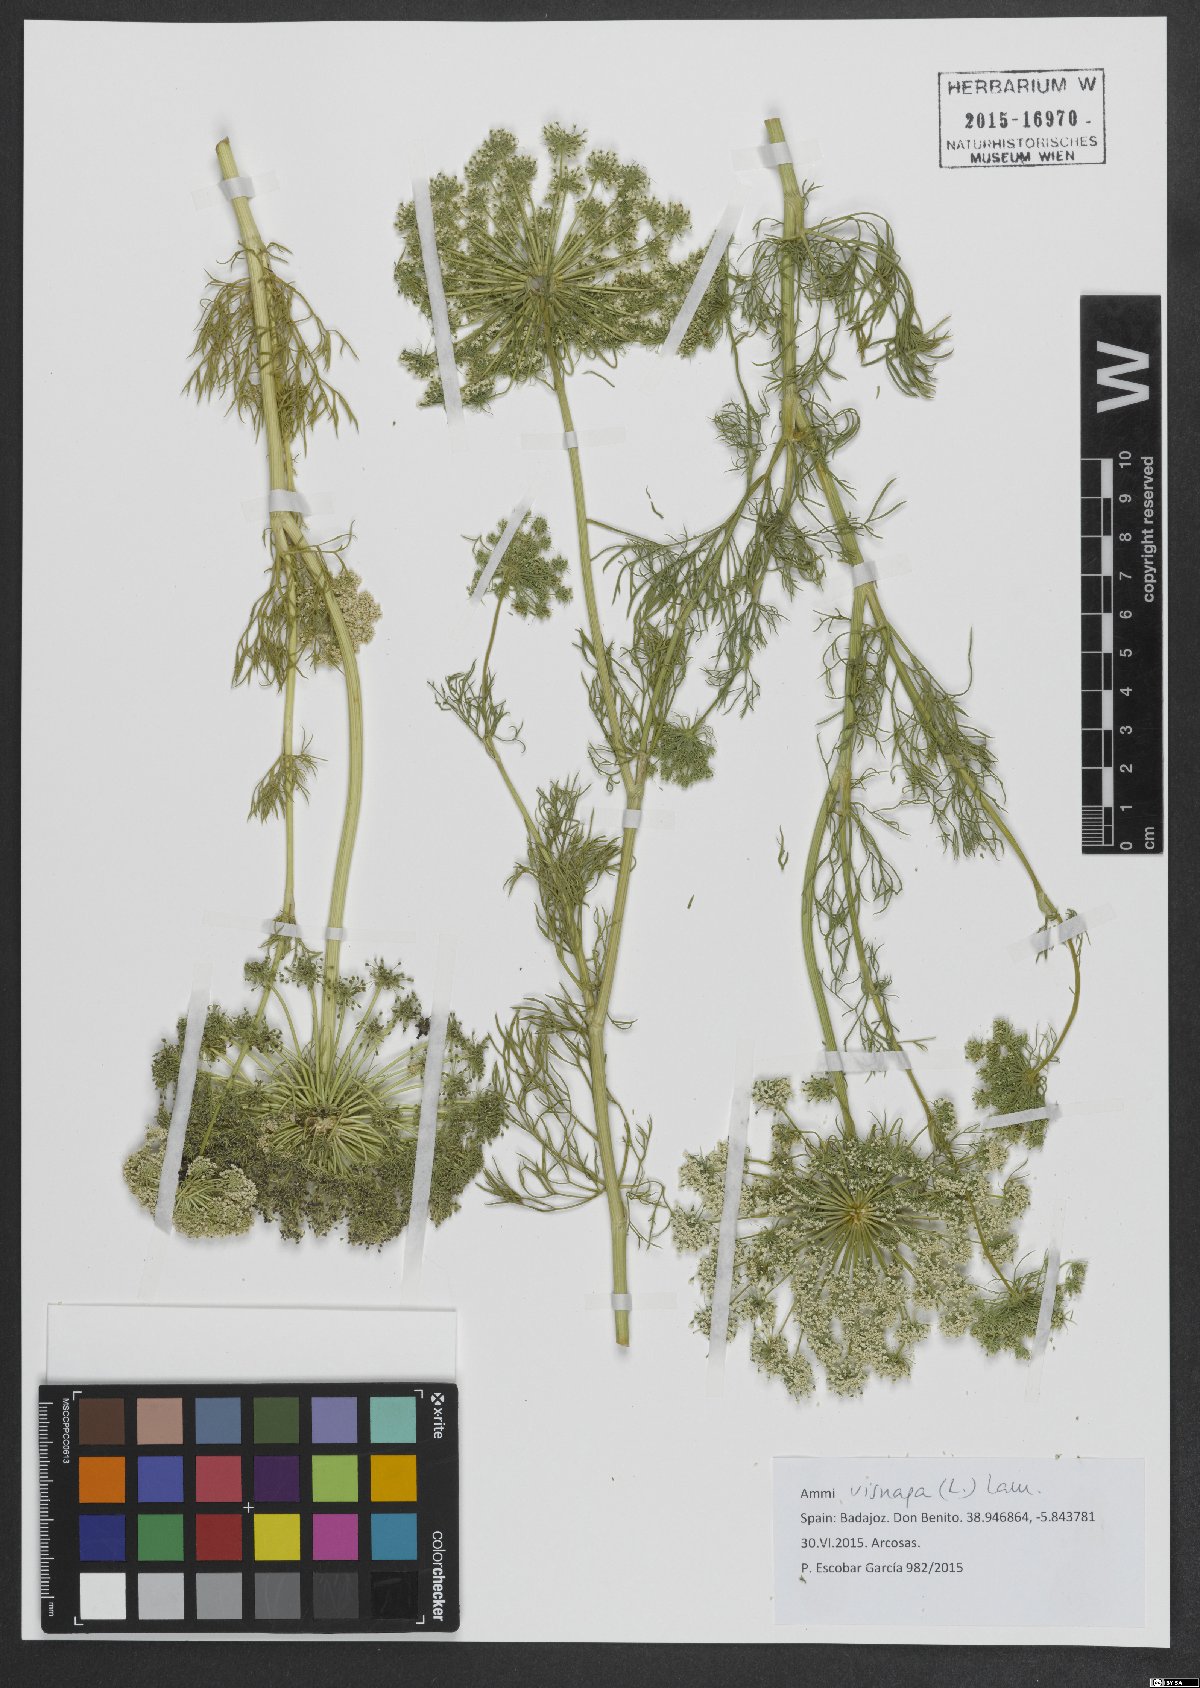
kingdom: Plantae
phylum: Tracheophyta
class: Magnoliopsida
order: Apiales
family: Apiaceae
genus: Visnaga
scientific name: Visnaga daucoides
